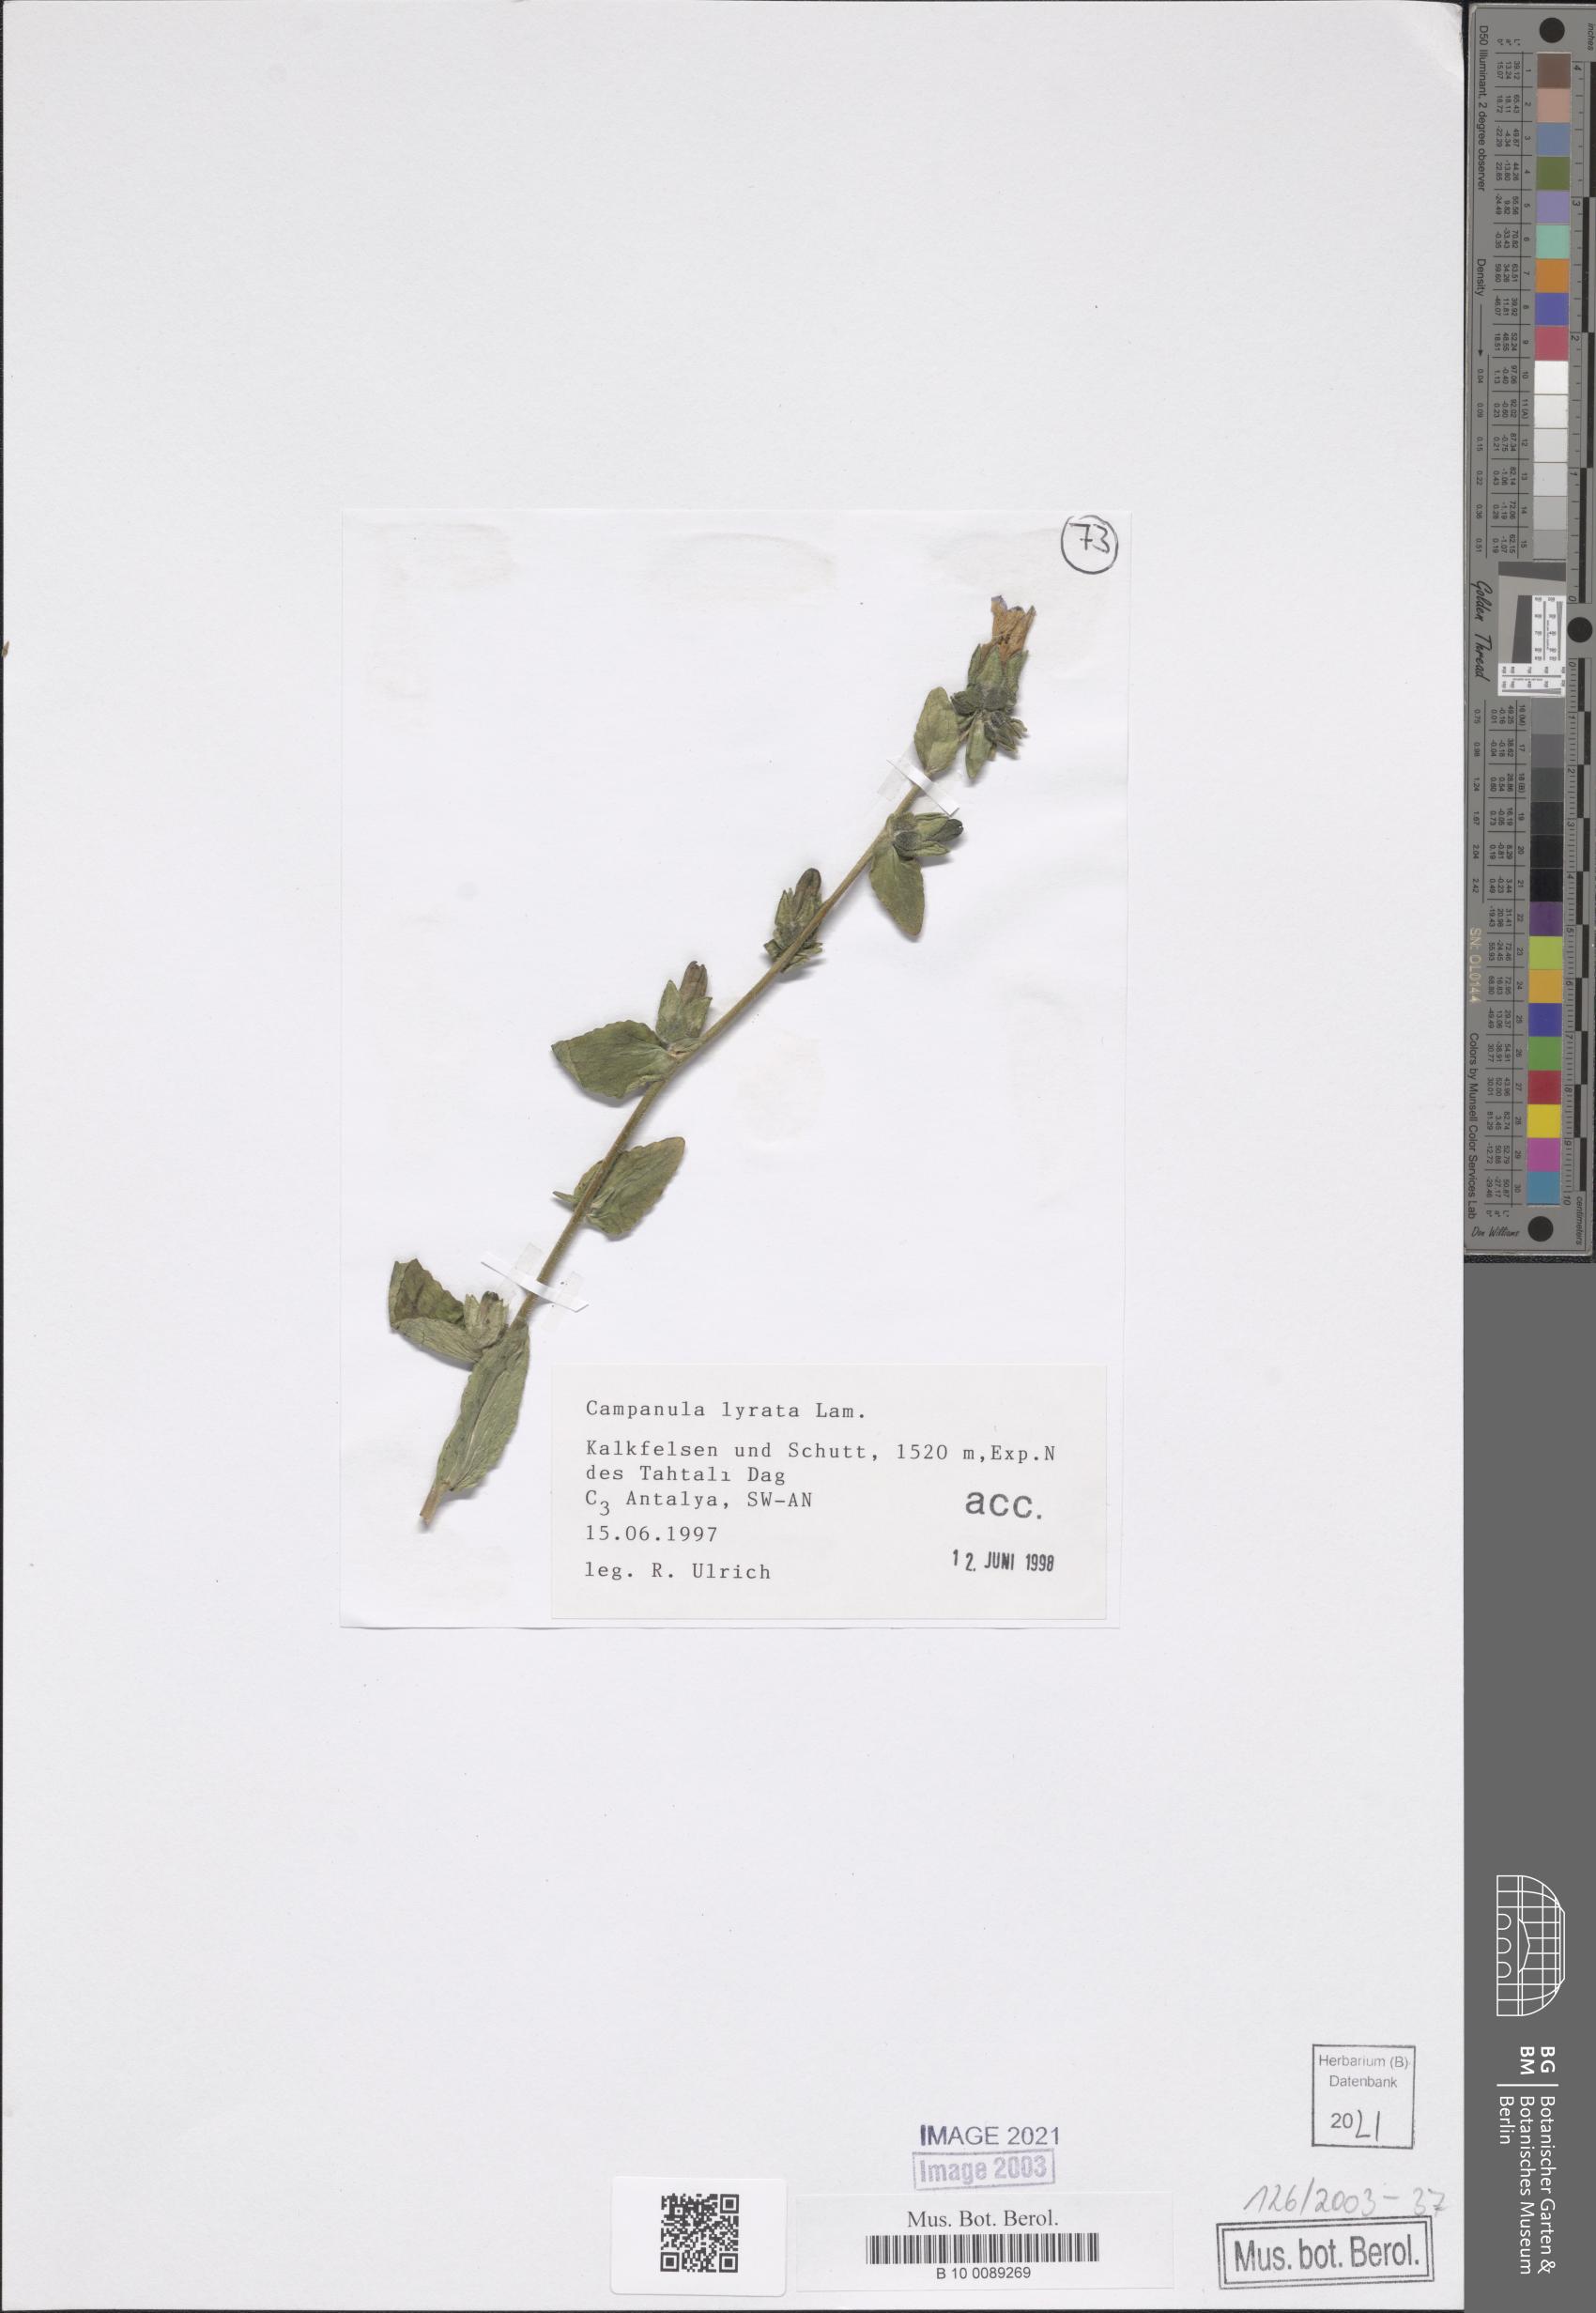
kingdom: Plantae
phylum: Tracheophyta
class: Magnoliopsida
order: Asterales
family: Campanulaceae
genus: Campanula
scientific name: Campanula lyrata
